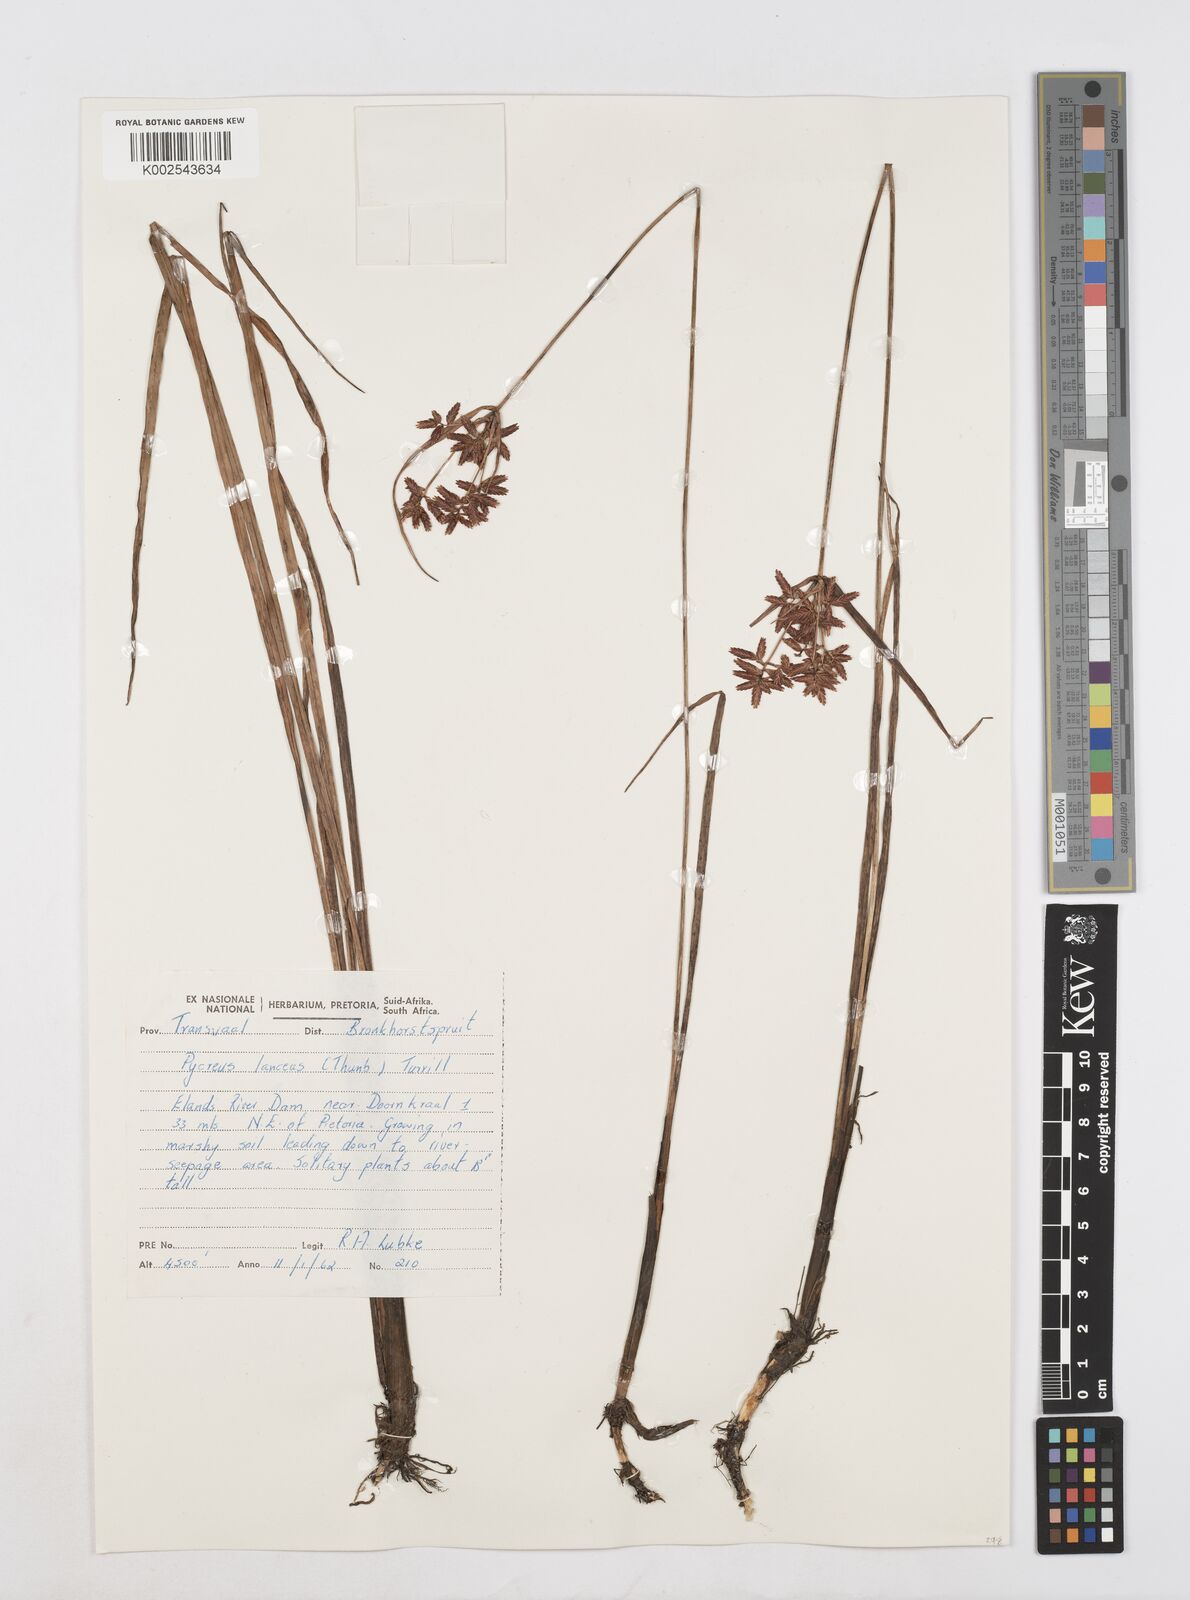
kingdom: Plantae
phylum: Tracheophyta
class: Liliopsida
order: Poales
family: Cyperaceae
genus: Cyperus
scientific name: Cyperus nitidus
